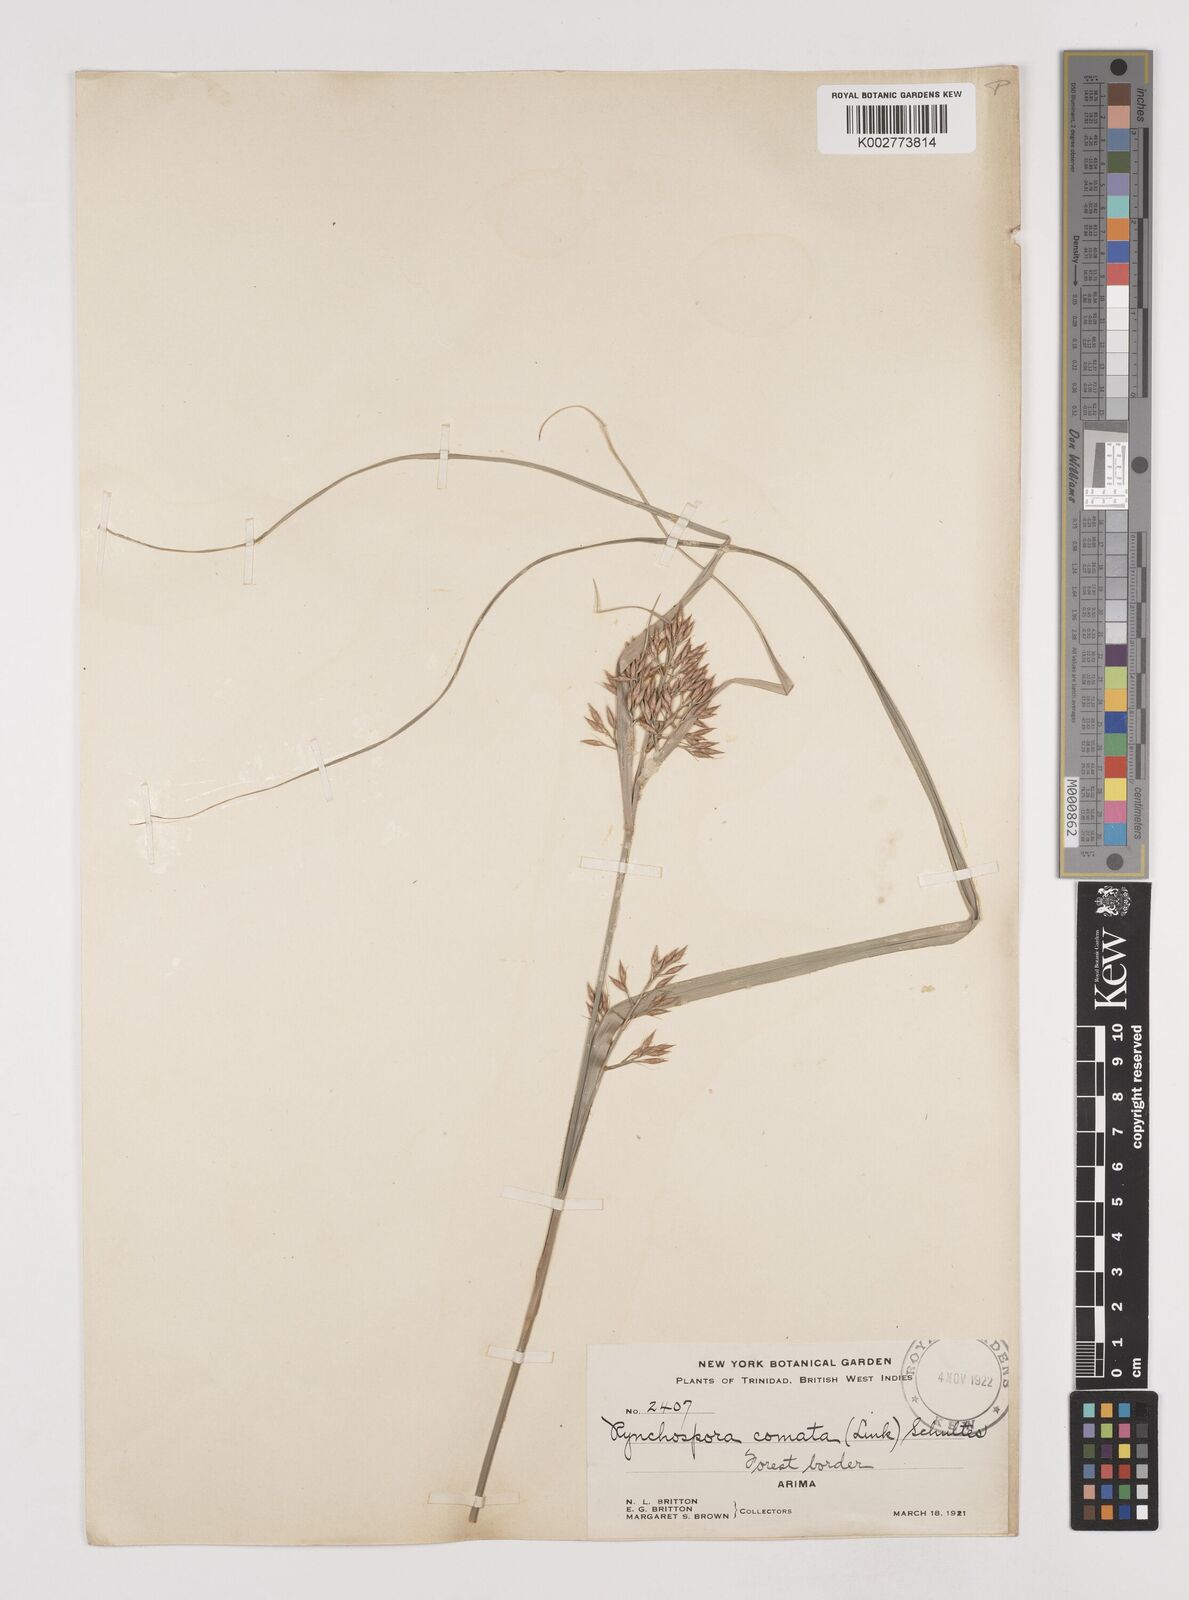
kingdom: Plantae
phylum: Tracheophyta
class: Liliopsida
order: Poales
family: Cyperaceae
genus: Rhynchospora
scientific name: Rhynchospora comata
